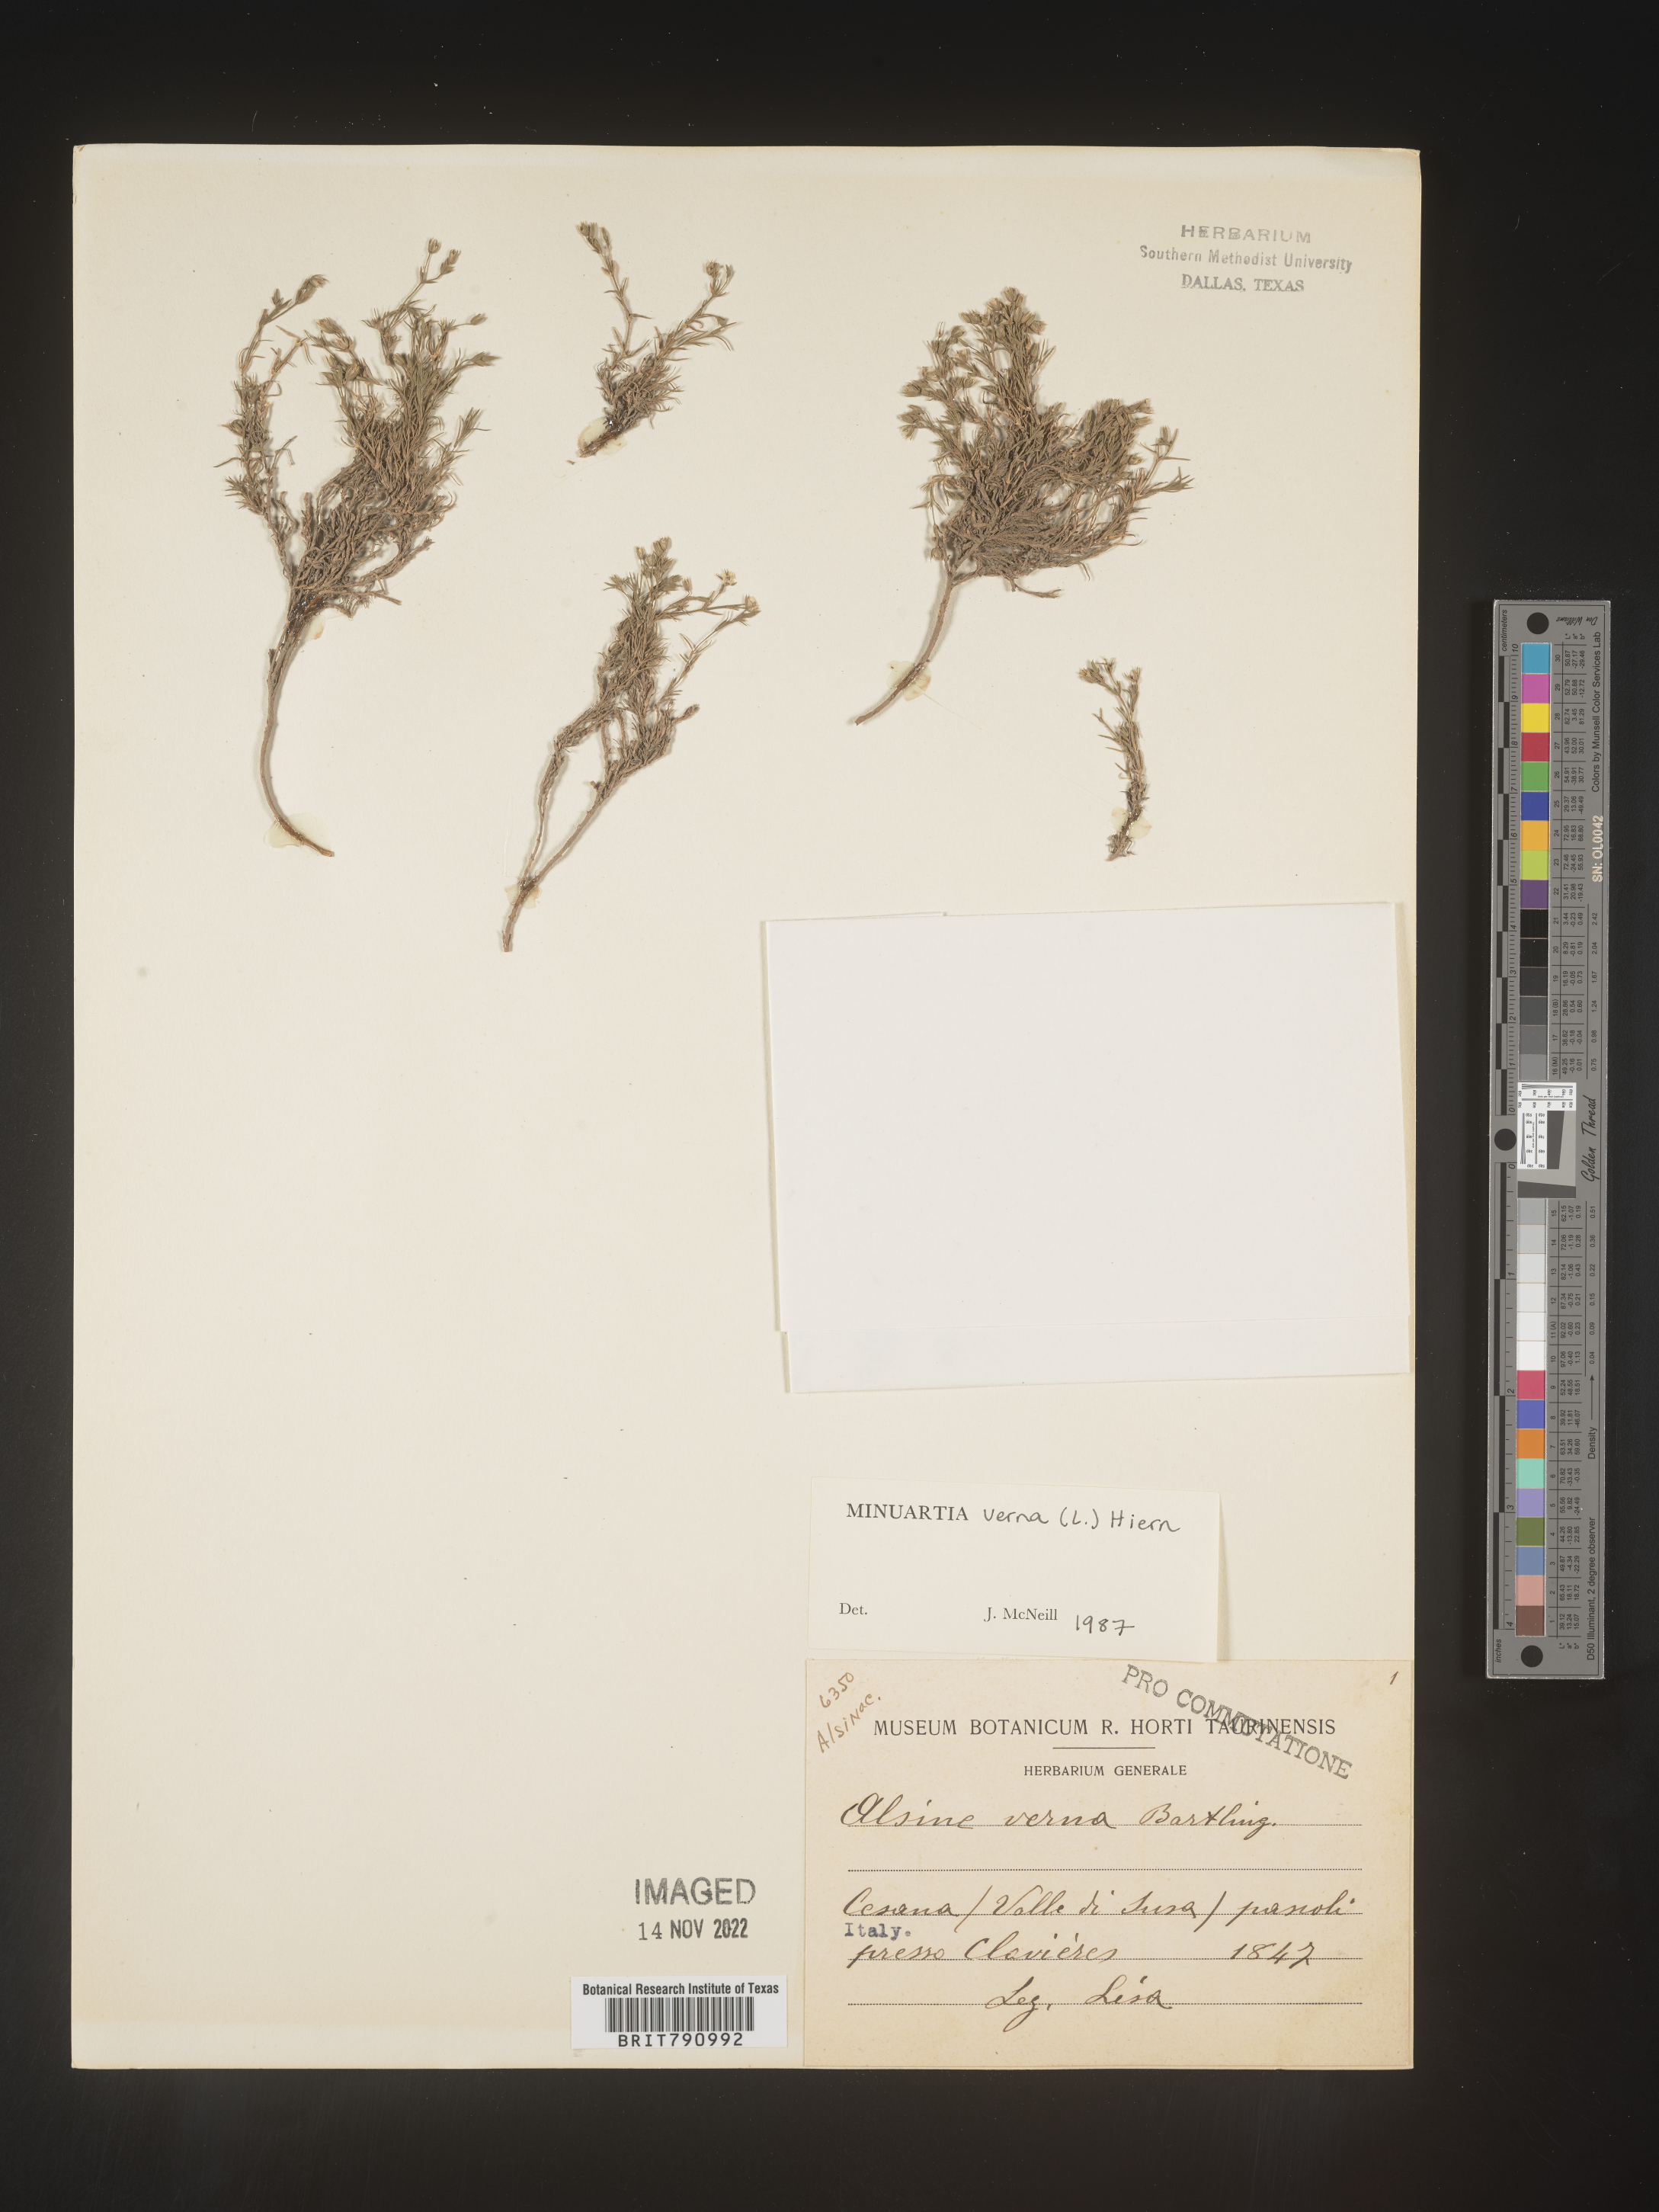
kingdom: Plantae
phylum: Tracheophyta
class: Magnoliopsida
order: Caryophyllales
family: Caryophyllaceae
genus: Minuartia
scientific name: Minuartia
